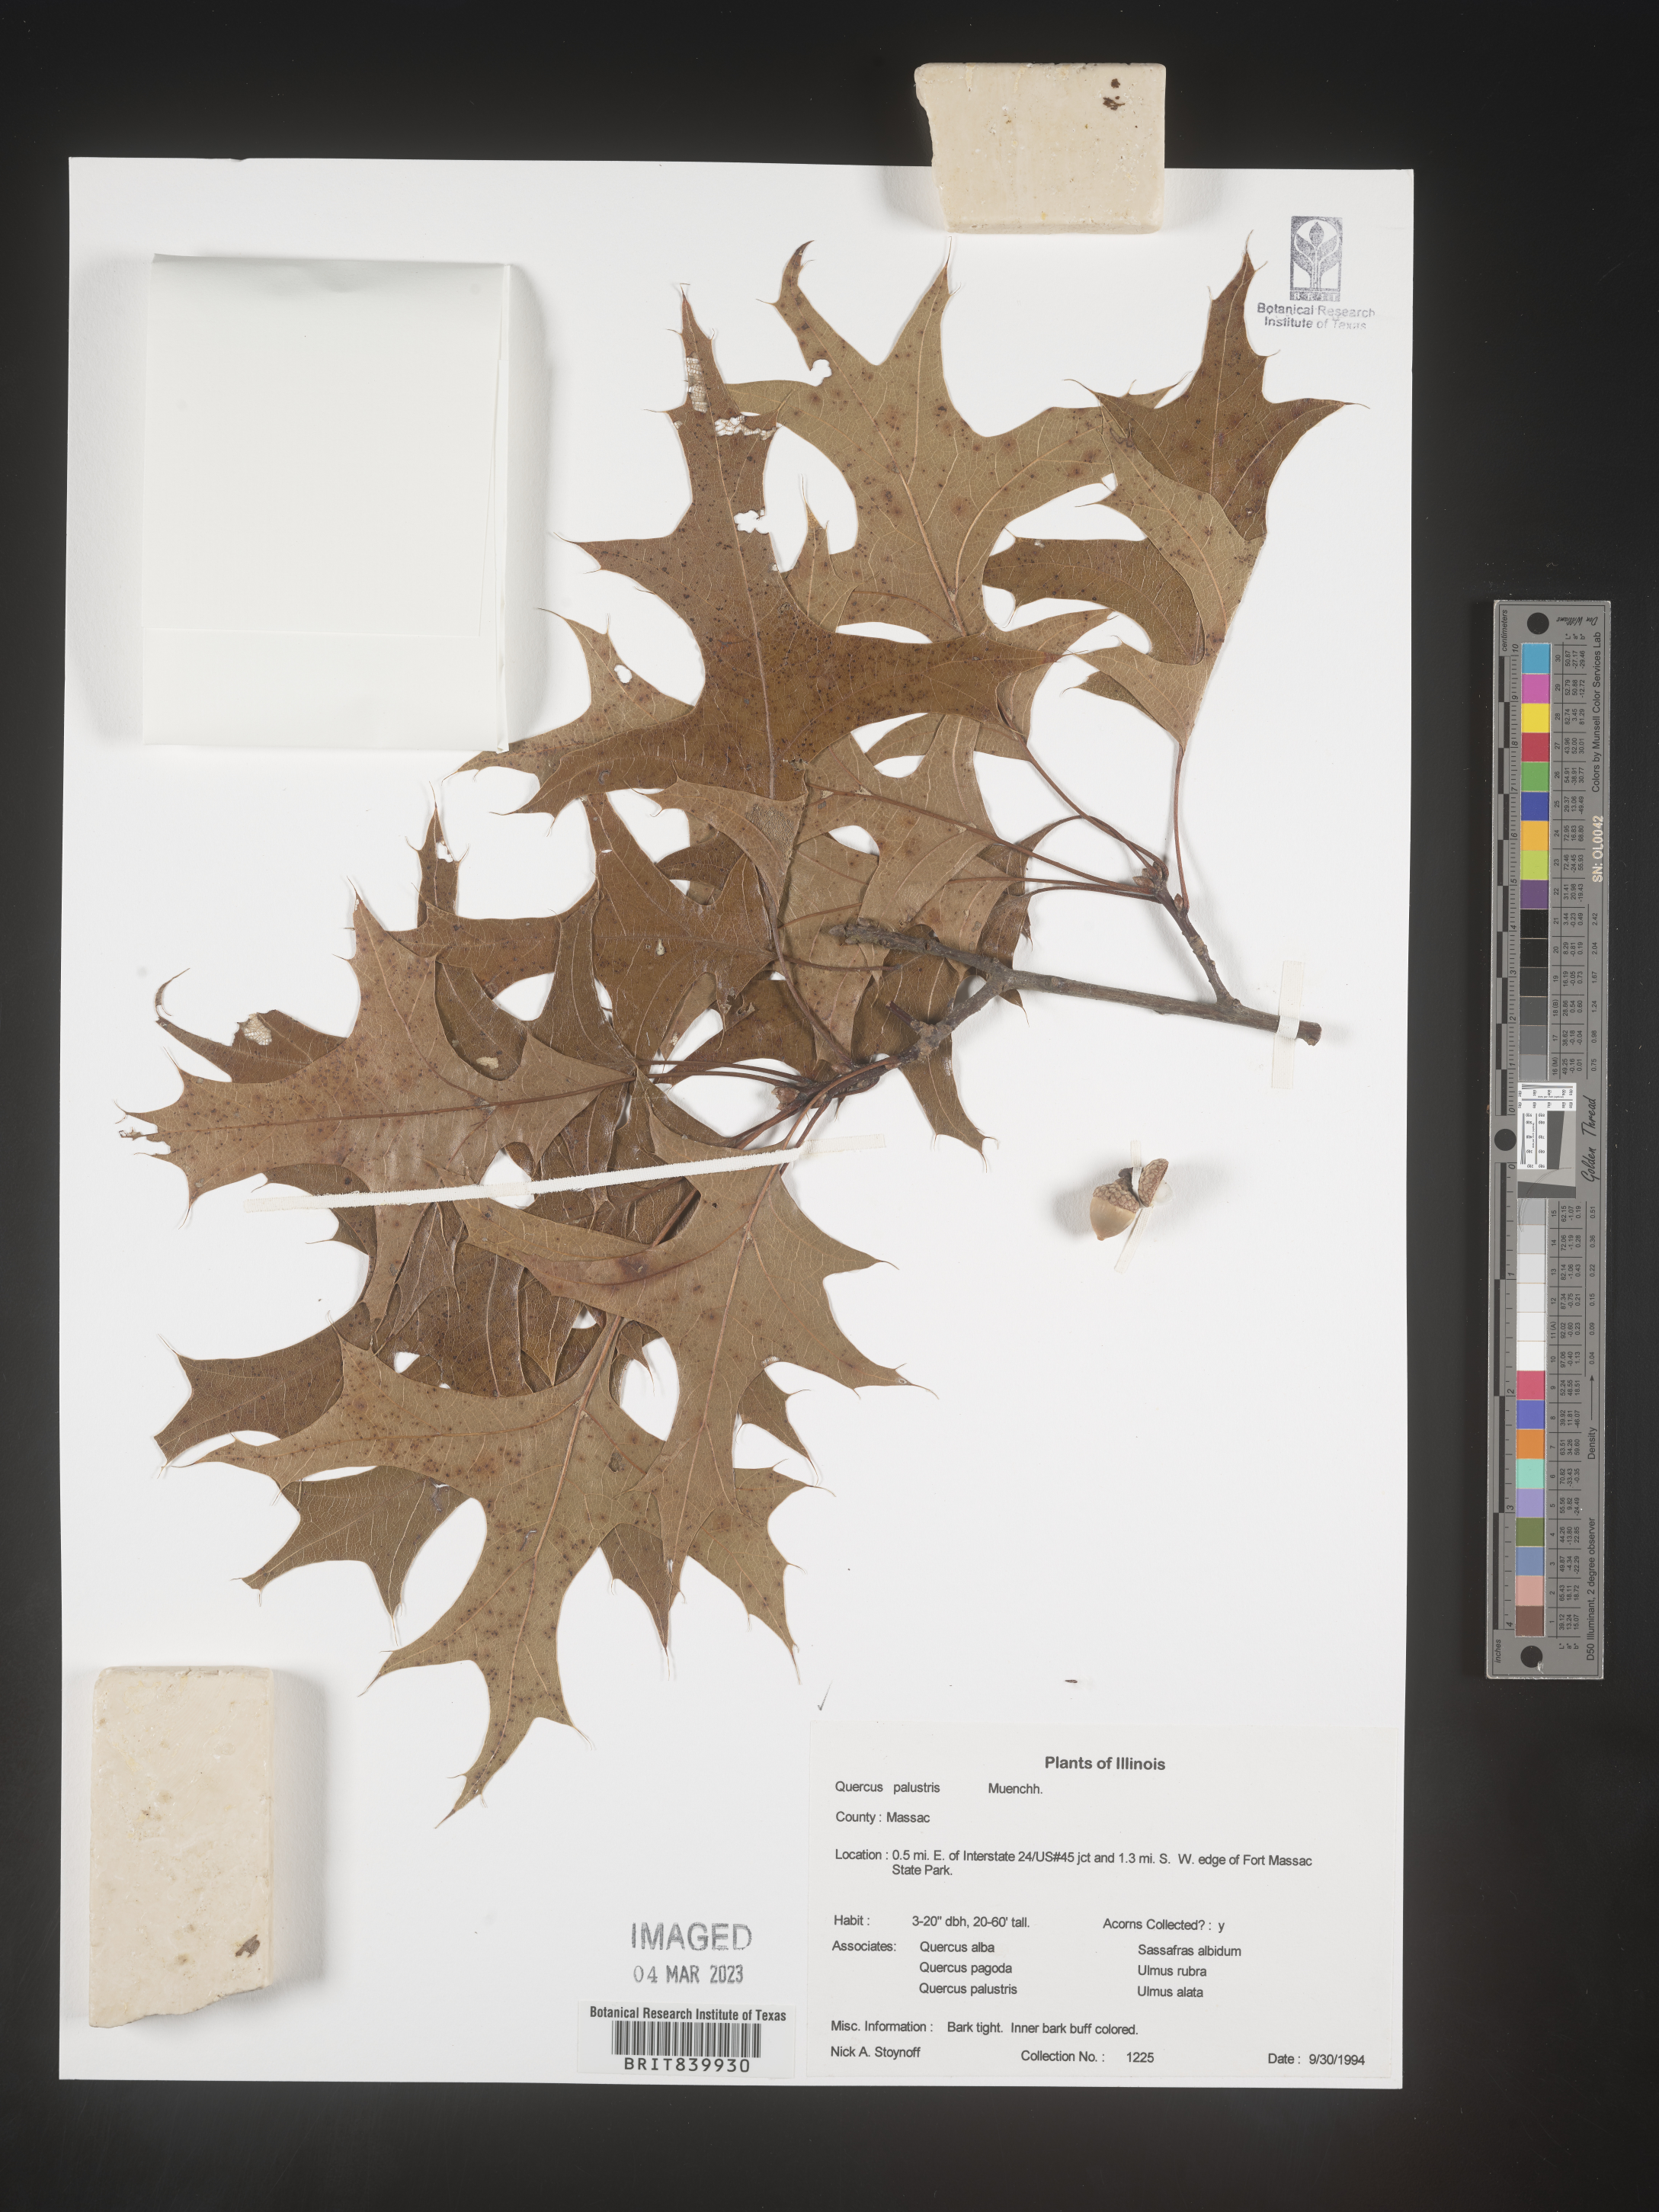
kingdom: Plantae
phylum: Tracheophyta
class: Magnoliopsida
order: Fagales
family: Fagaceae
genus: Quercus
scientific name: Quercus palustris
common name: Pin oak
